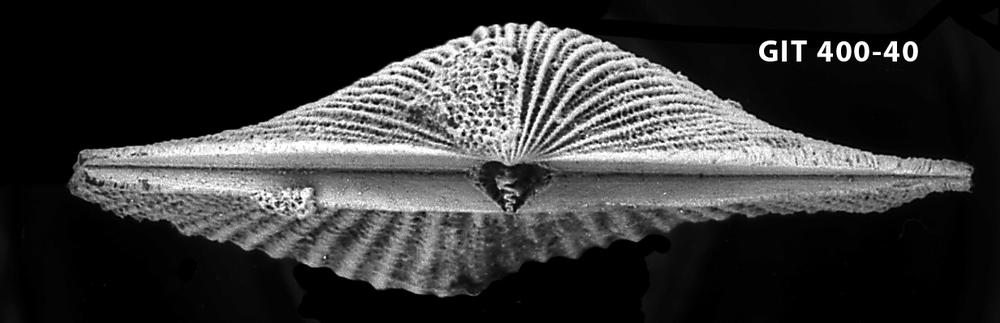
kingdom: Animalia
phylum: Brachiopoda
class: Rhynchonellata
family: Orthidae
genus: Cyrtonotella
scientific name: Cyrtonotella Orthis kuckersiana
